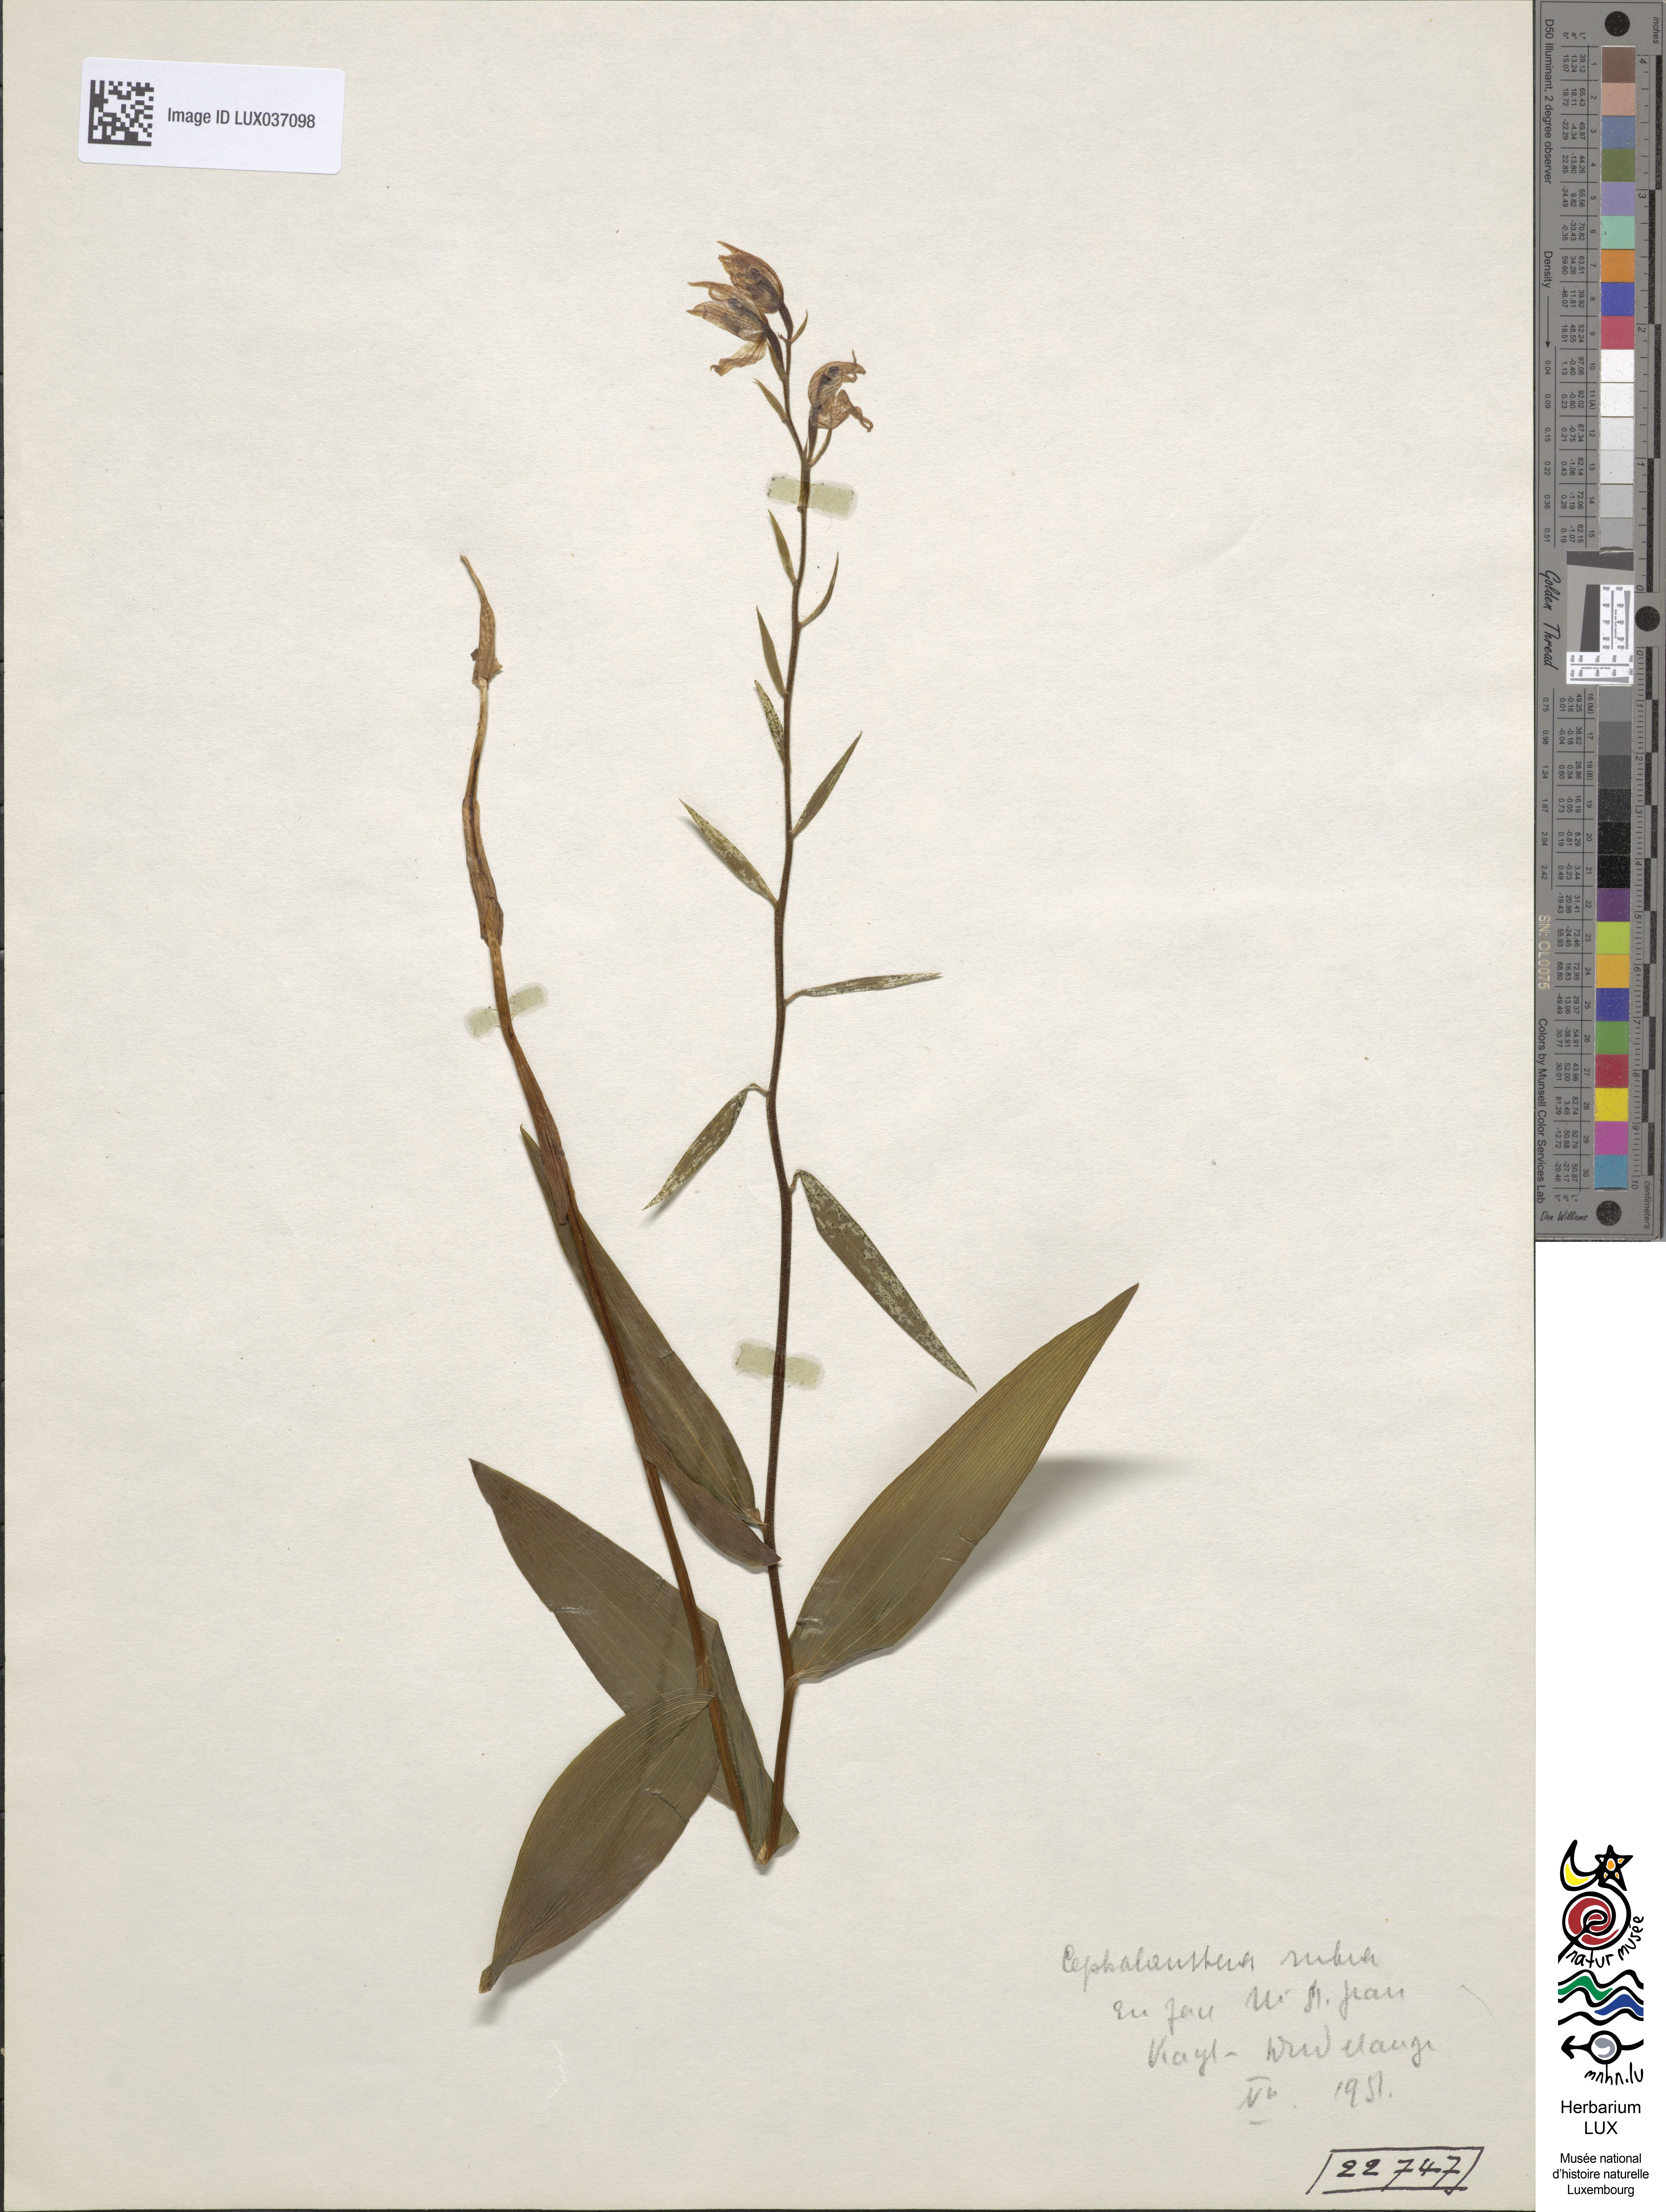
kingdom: Plantae
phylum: Tracheophyta
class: Liliopsida
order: Asparagales
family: Orchidaceae
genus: Cephalanthera
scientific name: Cephalanthera rubra
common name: Red helleborine
